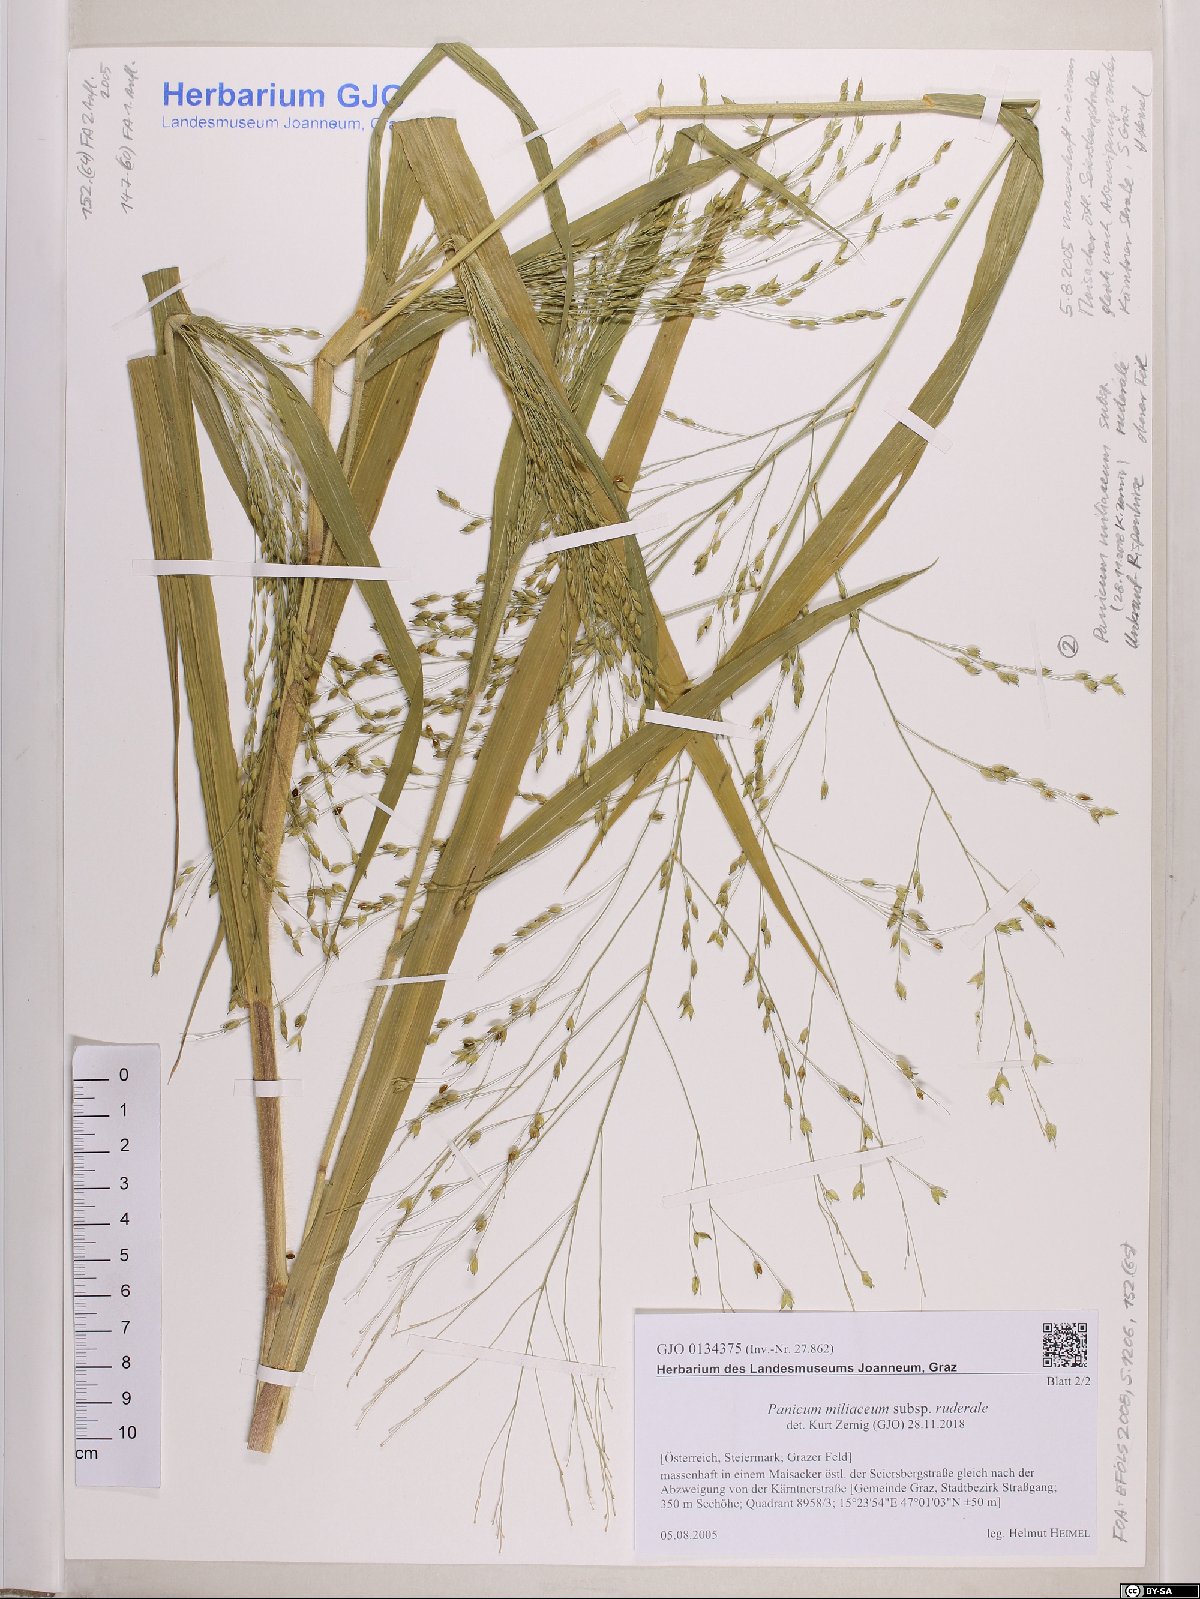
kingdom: Plantae
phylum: Tracheophyta
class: Liliopsida
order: Poales
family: Poaceae
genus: Panicum
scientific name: Panicum miliaceum
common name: Common millet
